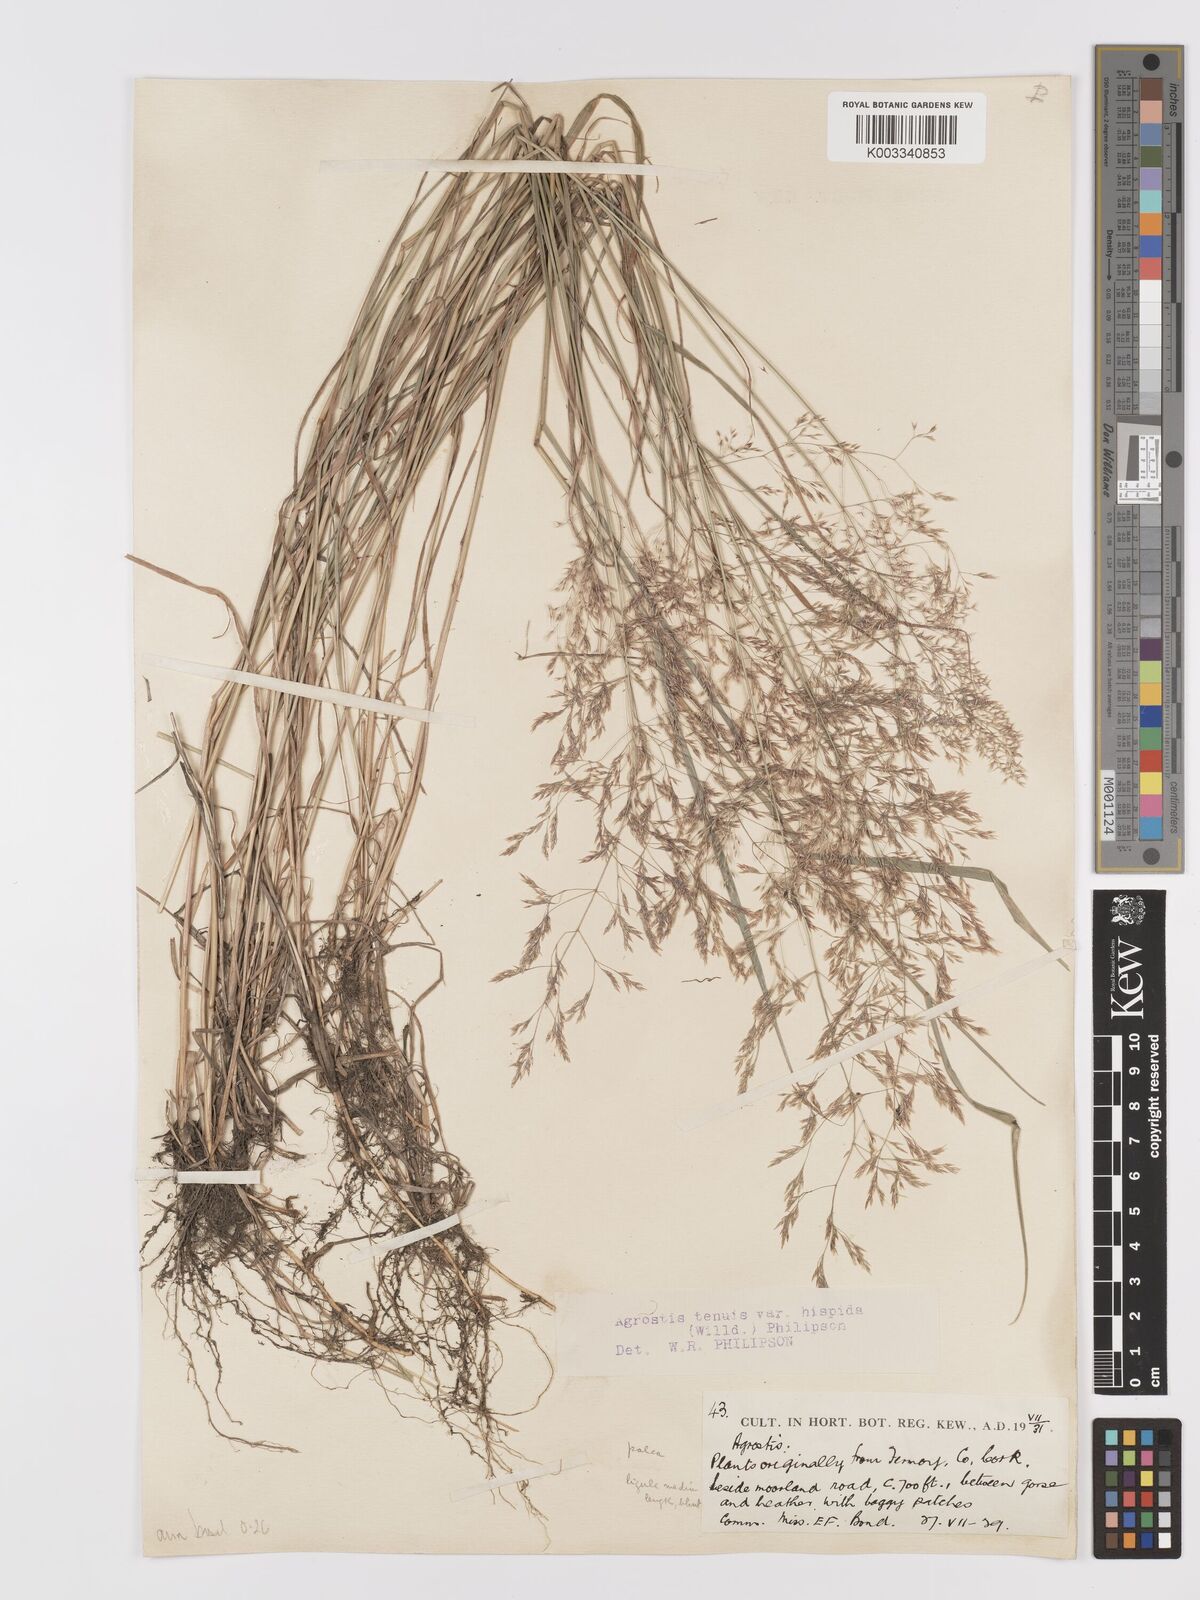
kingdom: Plantae
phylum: Tracheophyta
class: Liliopsida
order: Poales
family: Poaceae
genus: Agrostis
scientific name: Agrostis capillaris
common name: Colonial bentgrass
